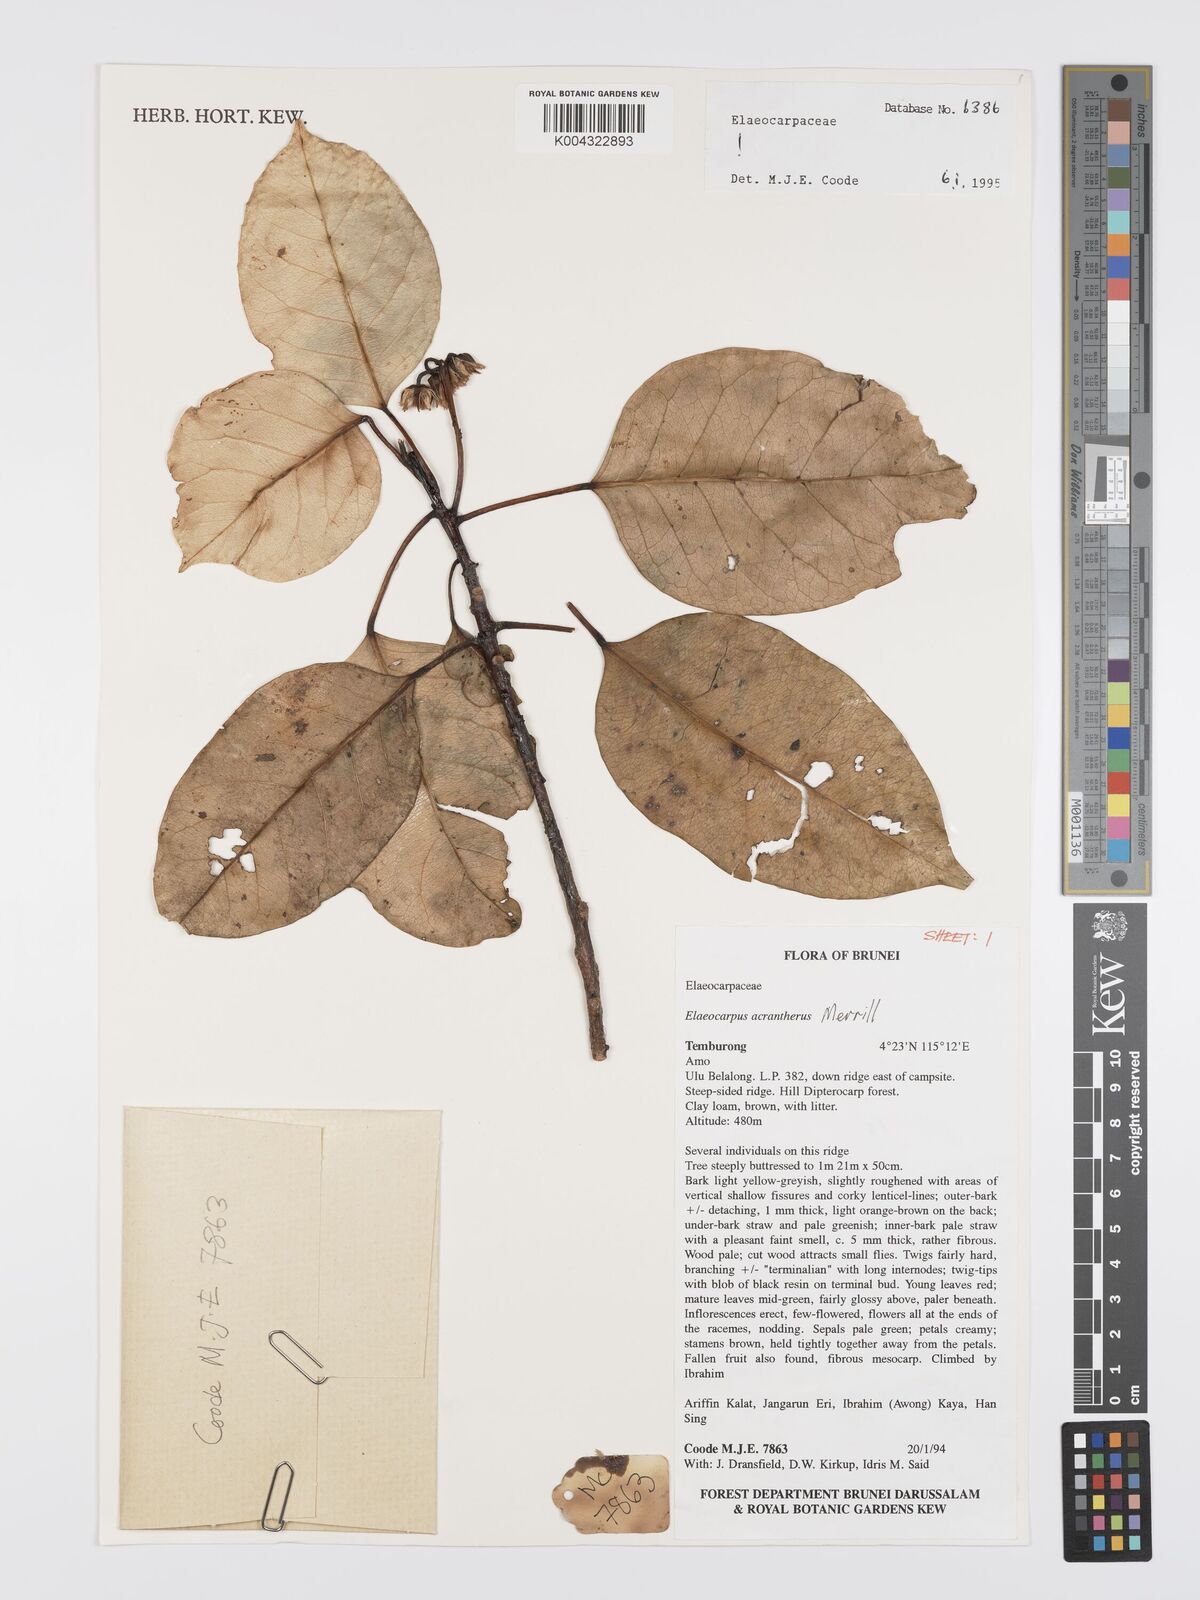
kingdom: Plantae
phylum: Tracheophyta
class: Magnoliopsida
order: Oxalidales
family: Elaeocarpaceae
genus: Elaeocarpus
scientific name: Elaeocarpus acrantherus
